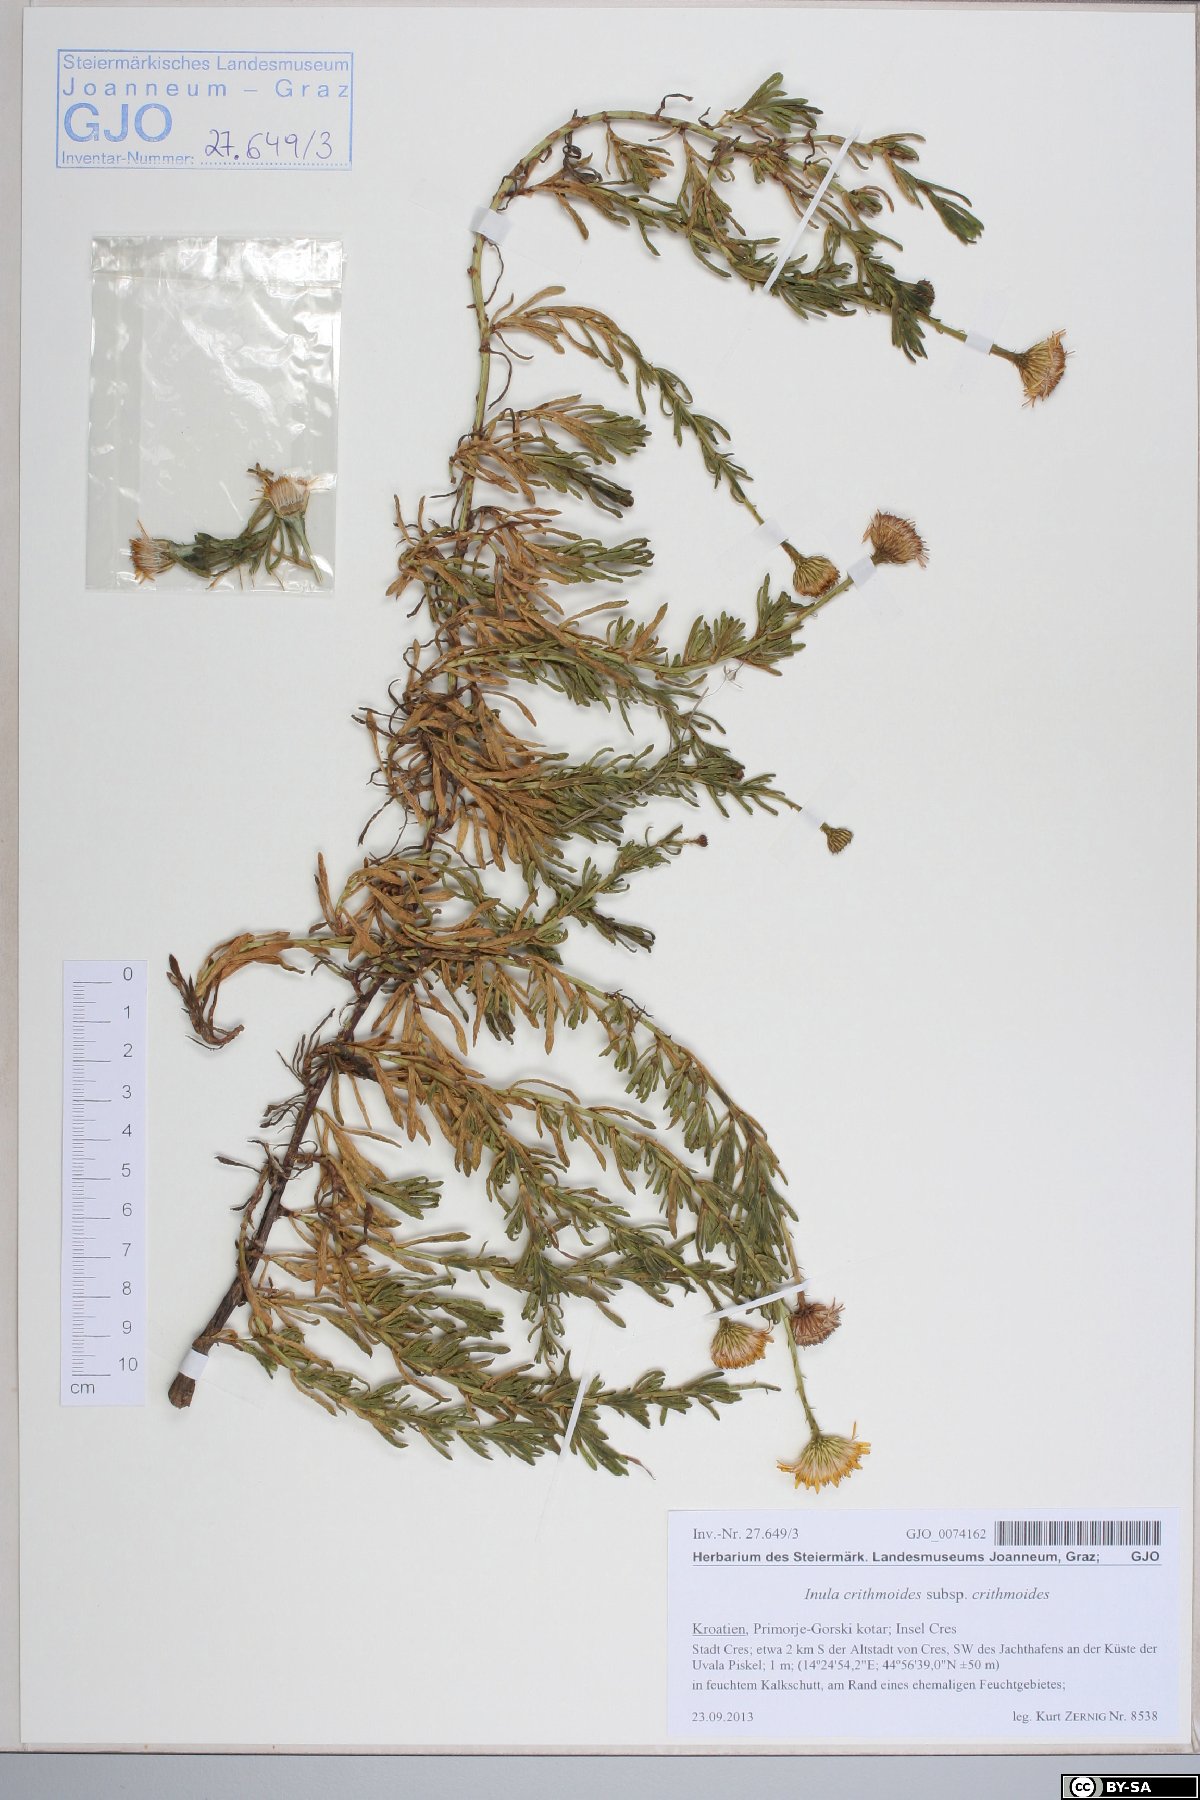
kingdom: Plantae
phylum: Tracheophyta
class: Magnoliopsida
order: Asterales
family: Asteraceae
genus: Limbarda
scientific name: Limbarda crithmoides
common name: Golden samphire
